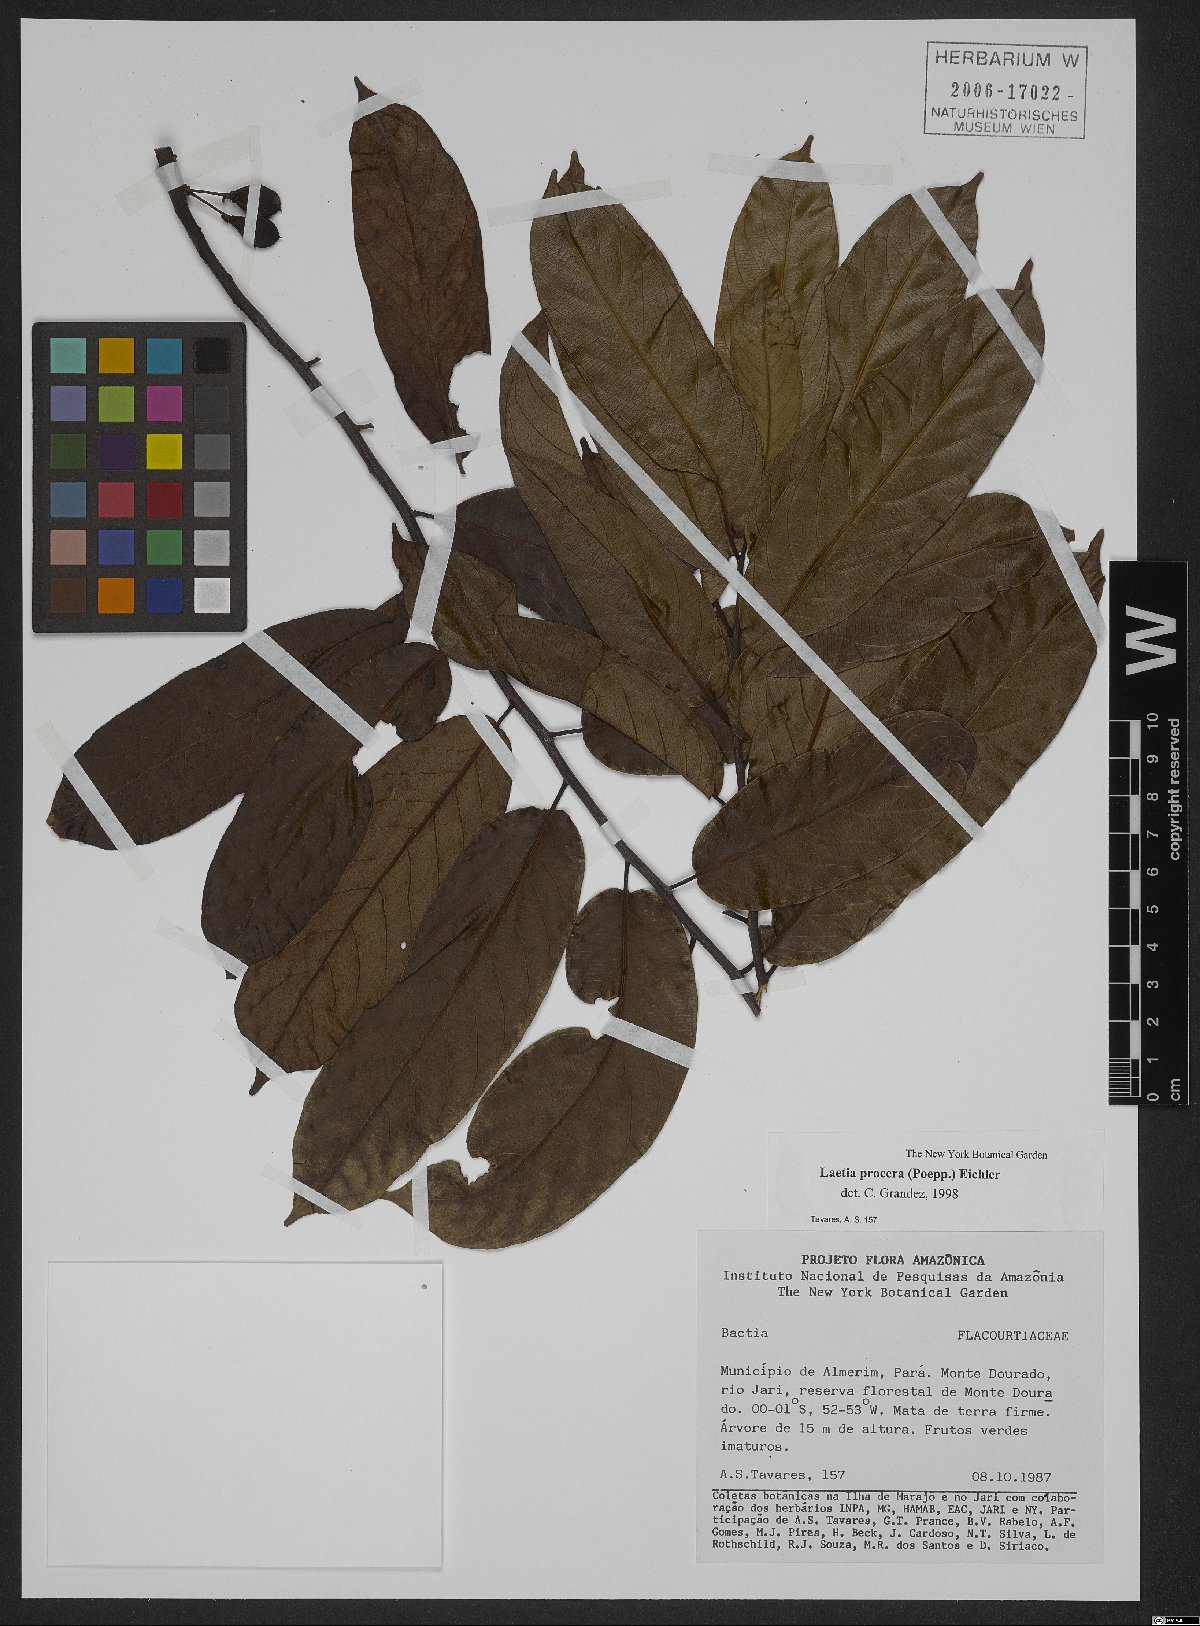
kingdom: Plantae
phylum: Tracheophyta
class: Magnoliopsida
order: Malpighiales
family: Salicaceae
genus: Casearia
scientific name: Casearia bicolor
